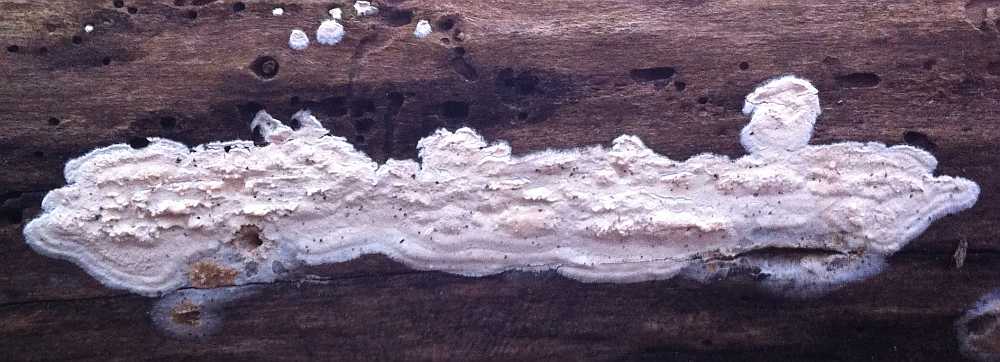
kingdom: Fungi
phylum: Basidiomycota
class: Agaricomycetes
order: Agaricales
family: Cyphellaceae
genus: Granulobasidium
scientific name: Granulobasidium vellereum
